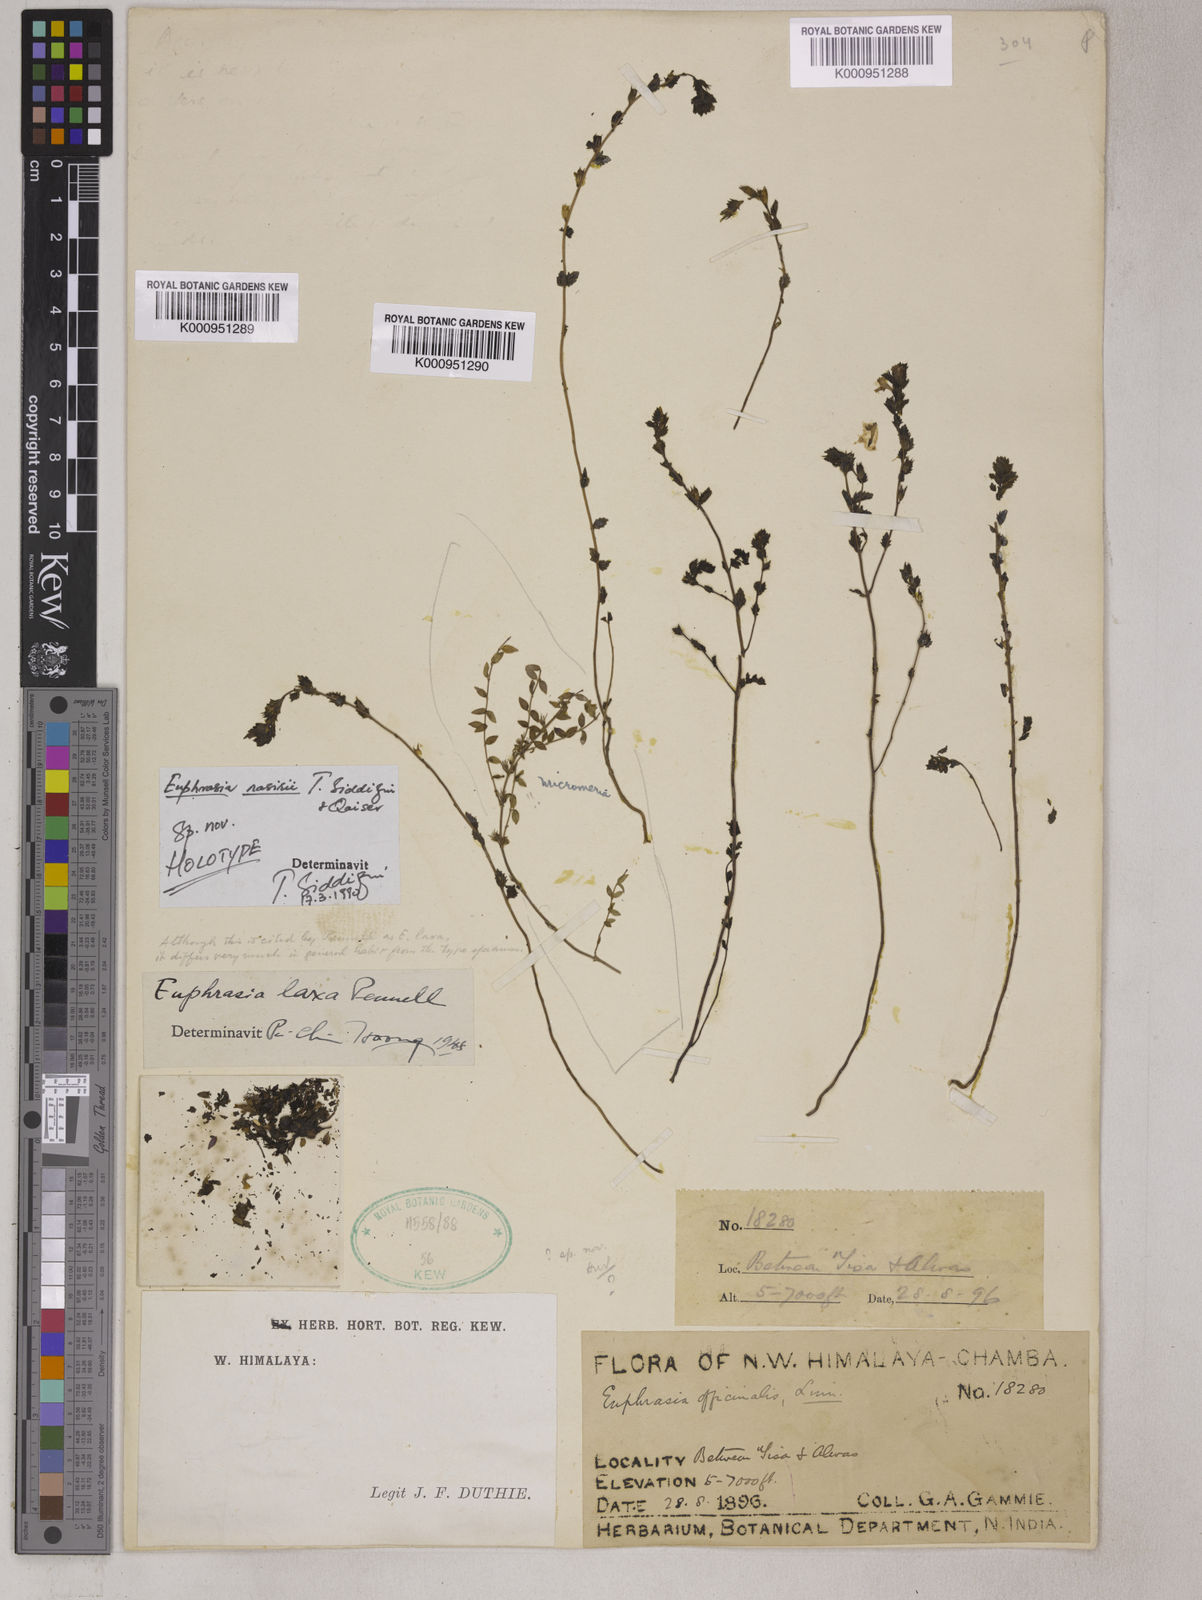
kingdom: Plantae
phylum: Tracheophyta
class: Magnoliopsida
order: Lamiales
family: Orobanchaceae
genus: Euphrasia
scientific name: Euphrasia
